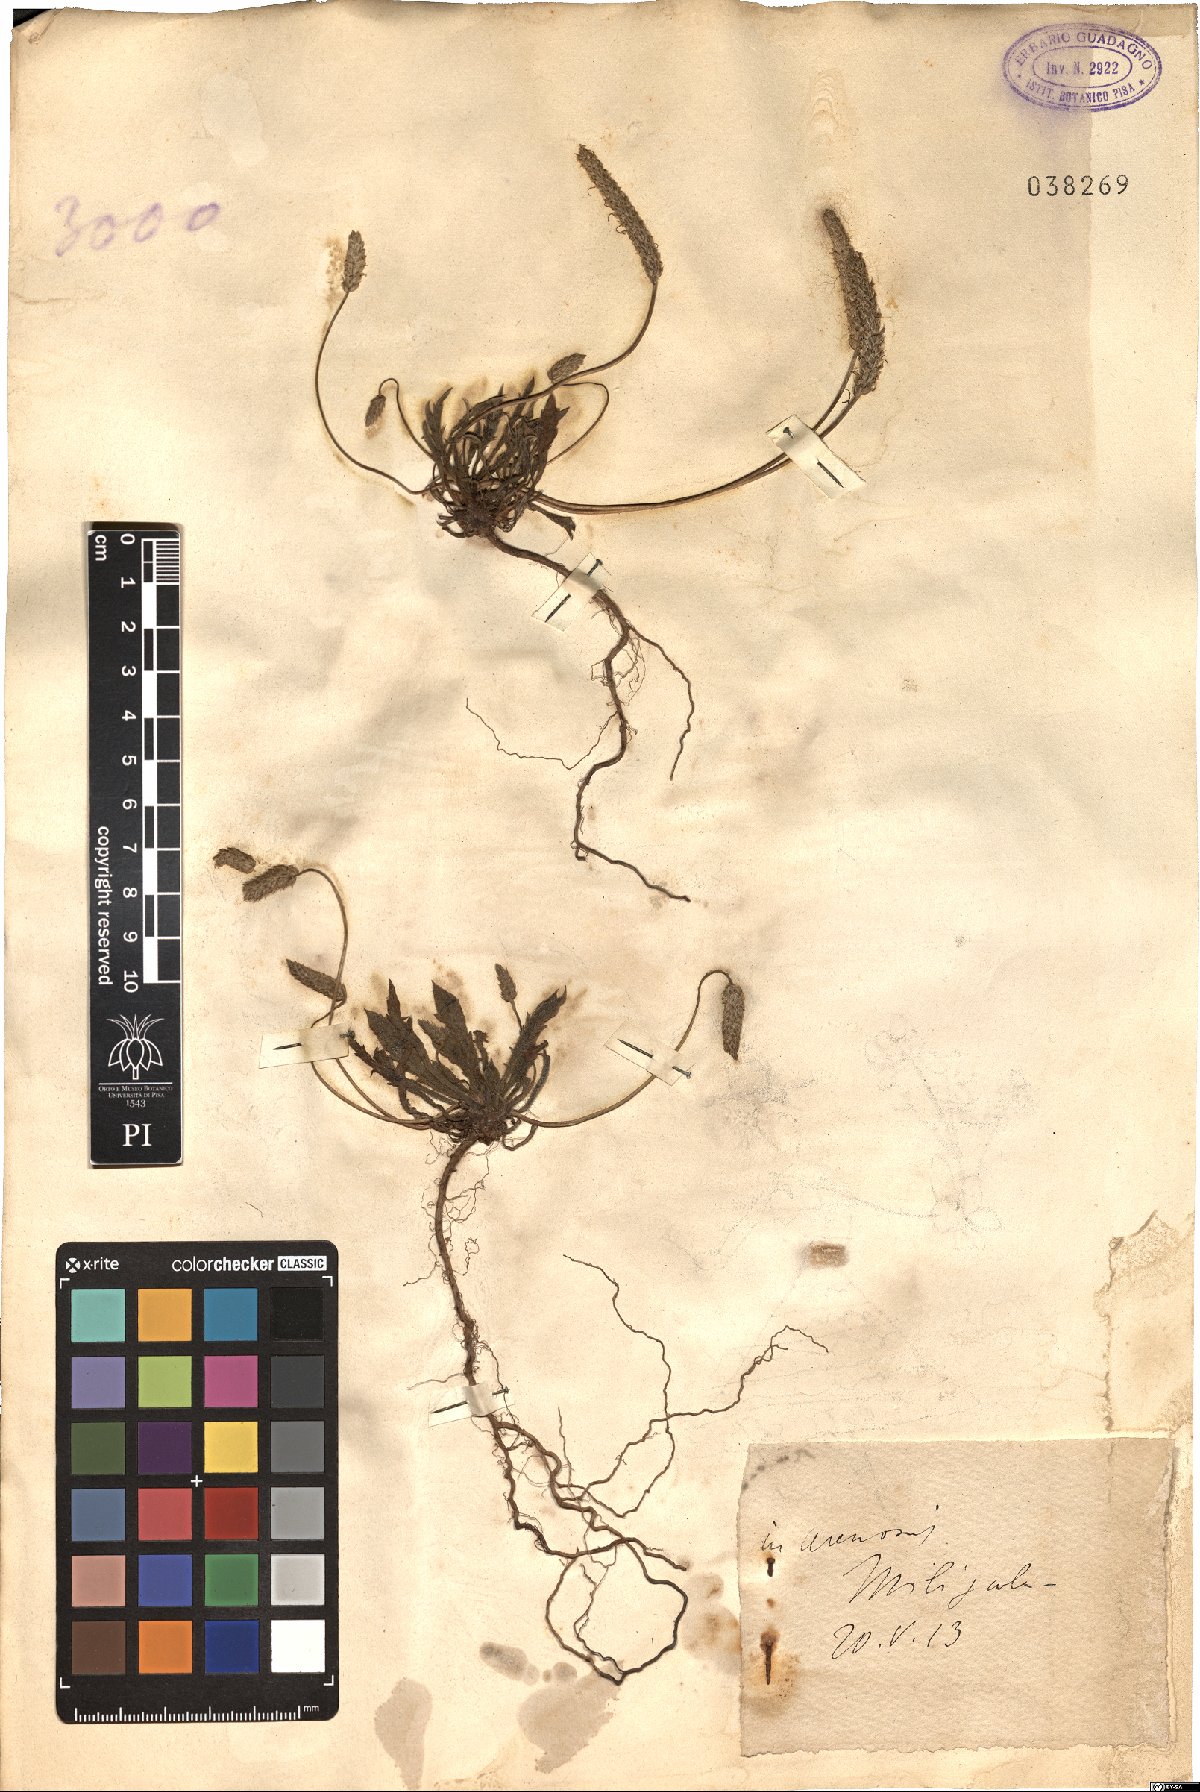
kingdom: Plantae
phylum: Tracheophyta
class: Magnoliopsida
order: Lamiales
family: Plantaginaceae
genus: Plantago
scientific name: Plantago
